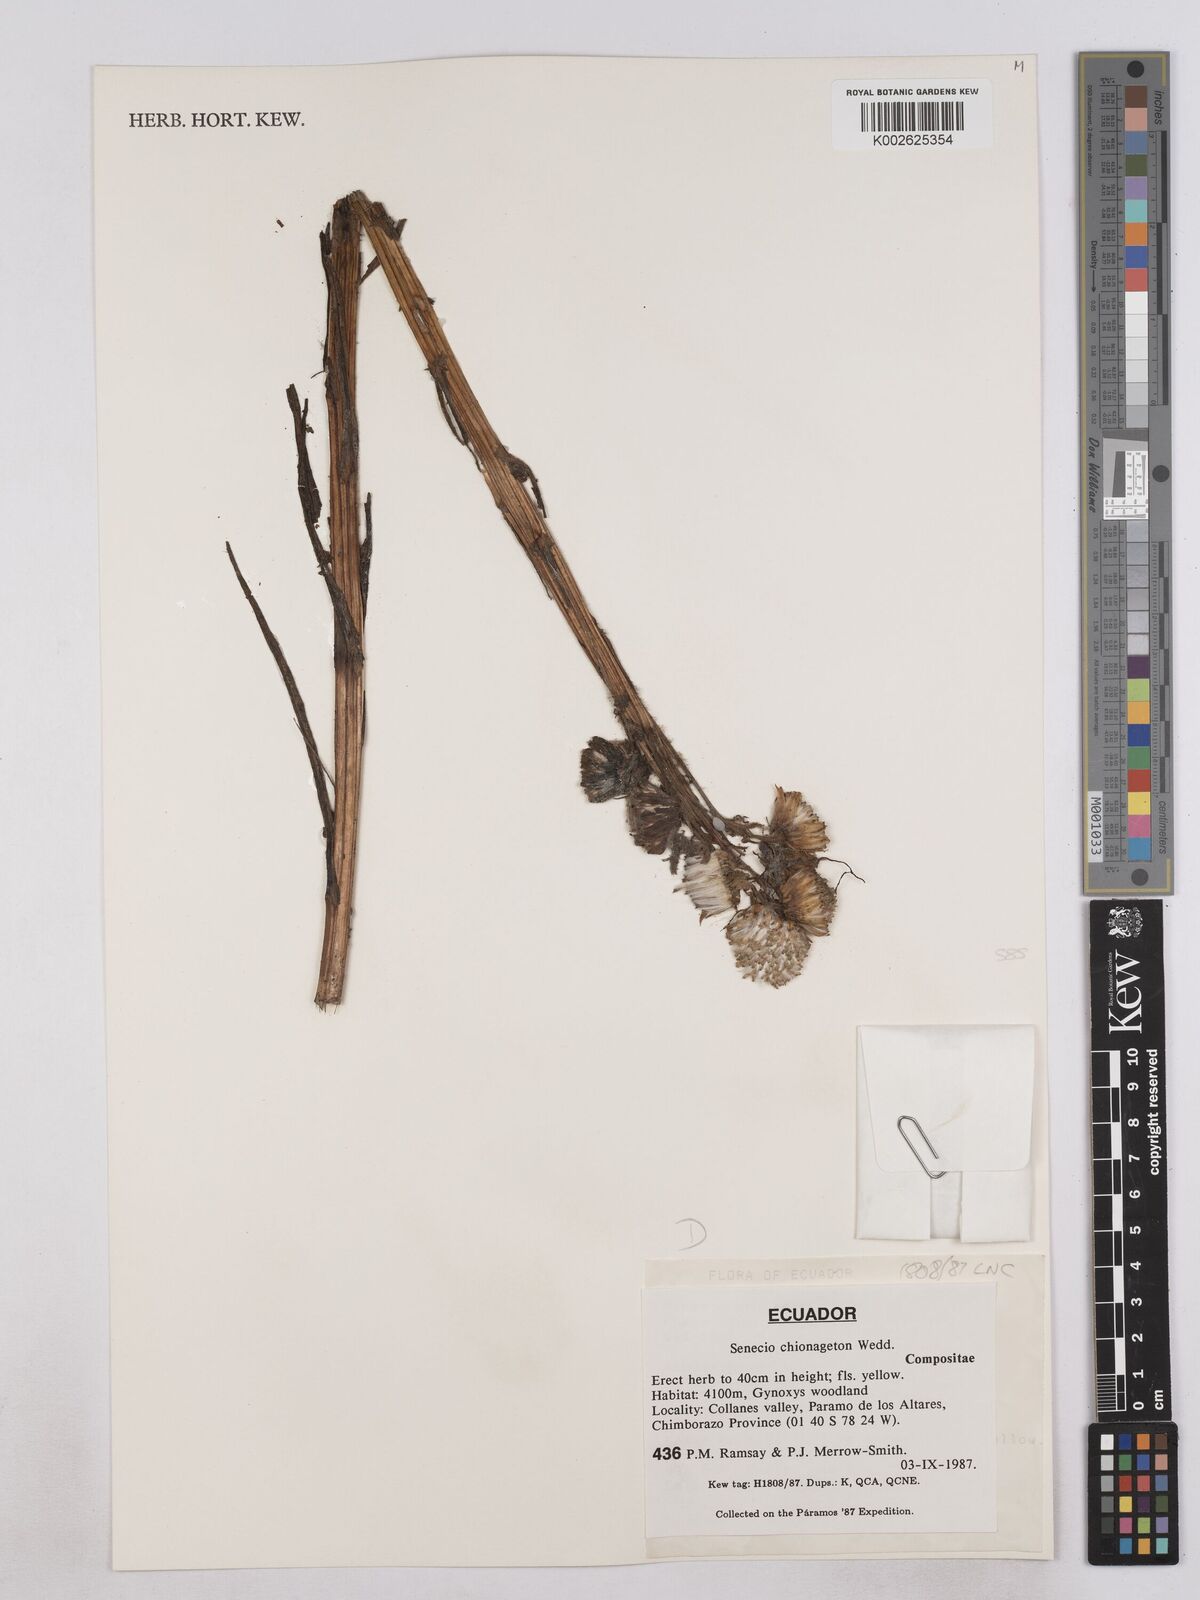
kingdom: Plantae
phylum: Tracheophyta
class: Magnoliopsida
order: Asterales
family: Asteraceae
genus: Senecio
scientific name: Senecio chionogeton
